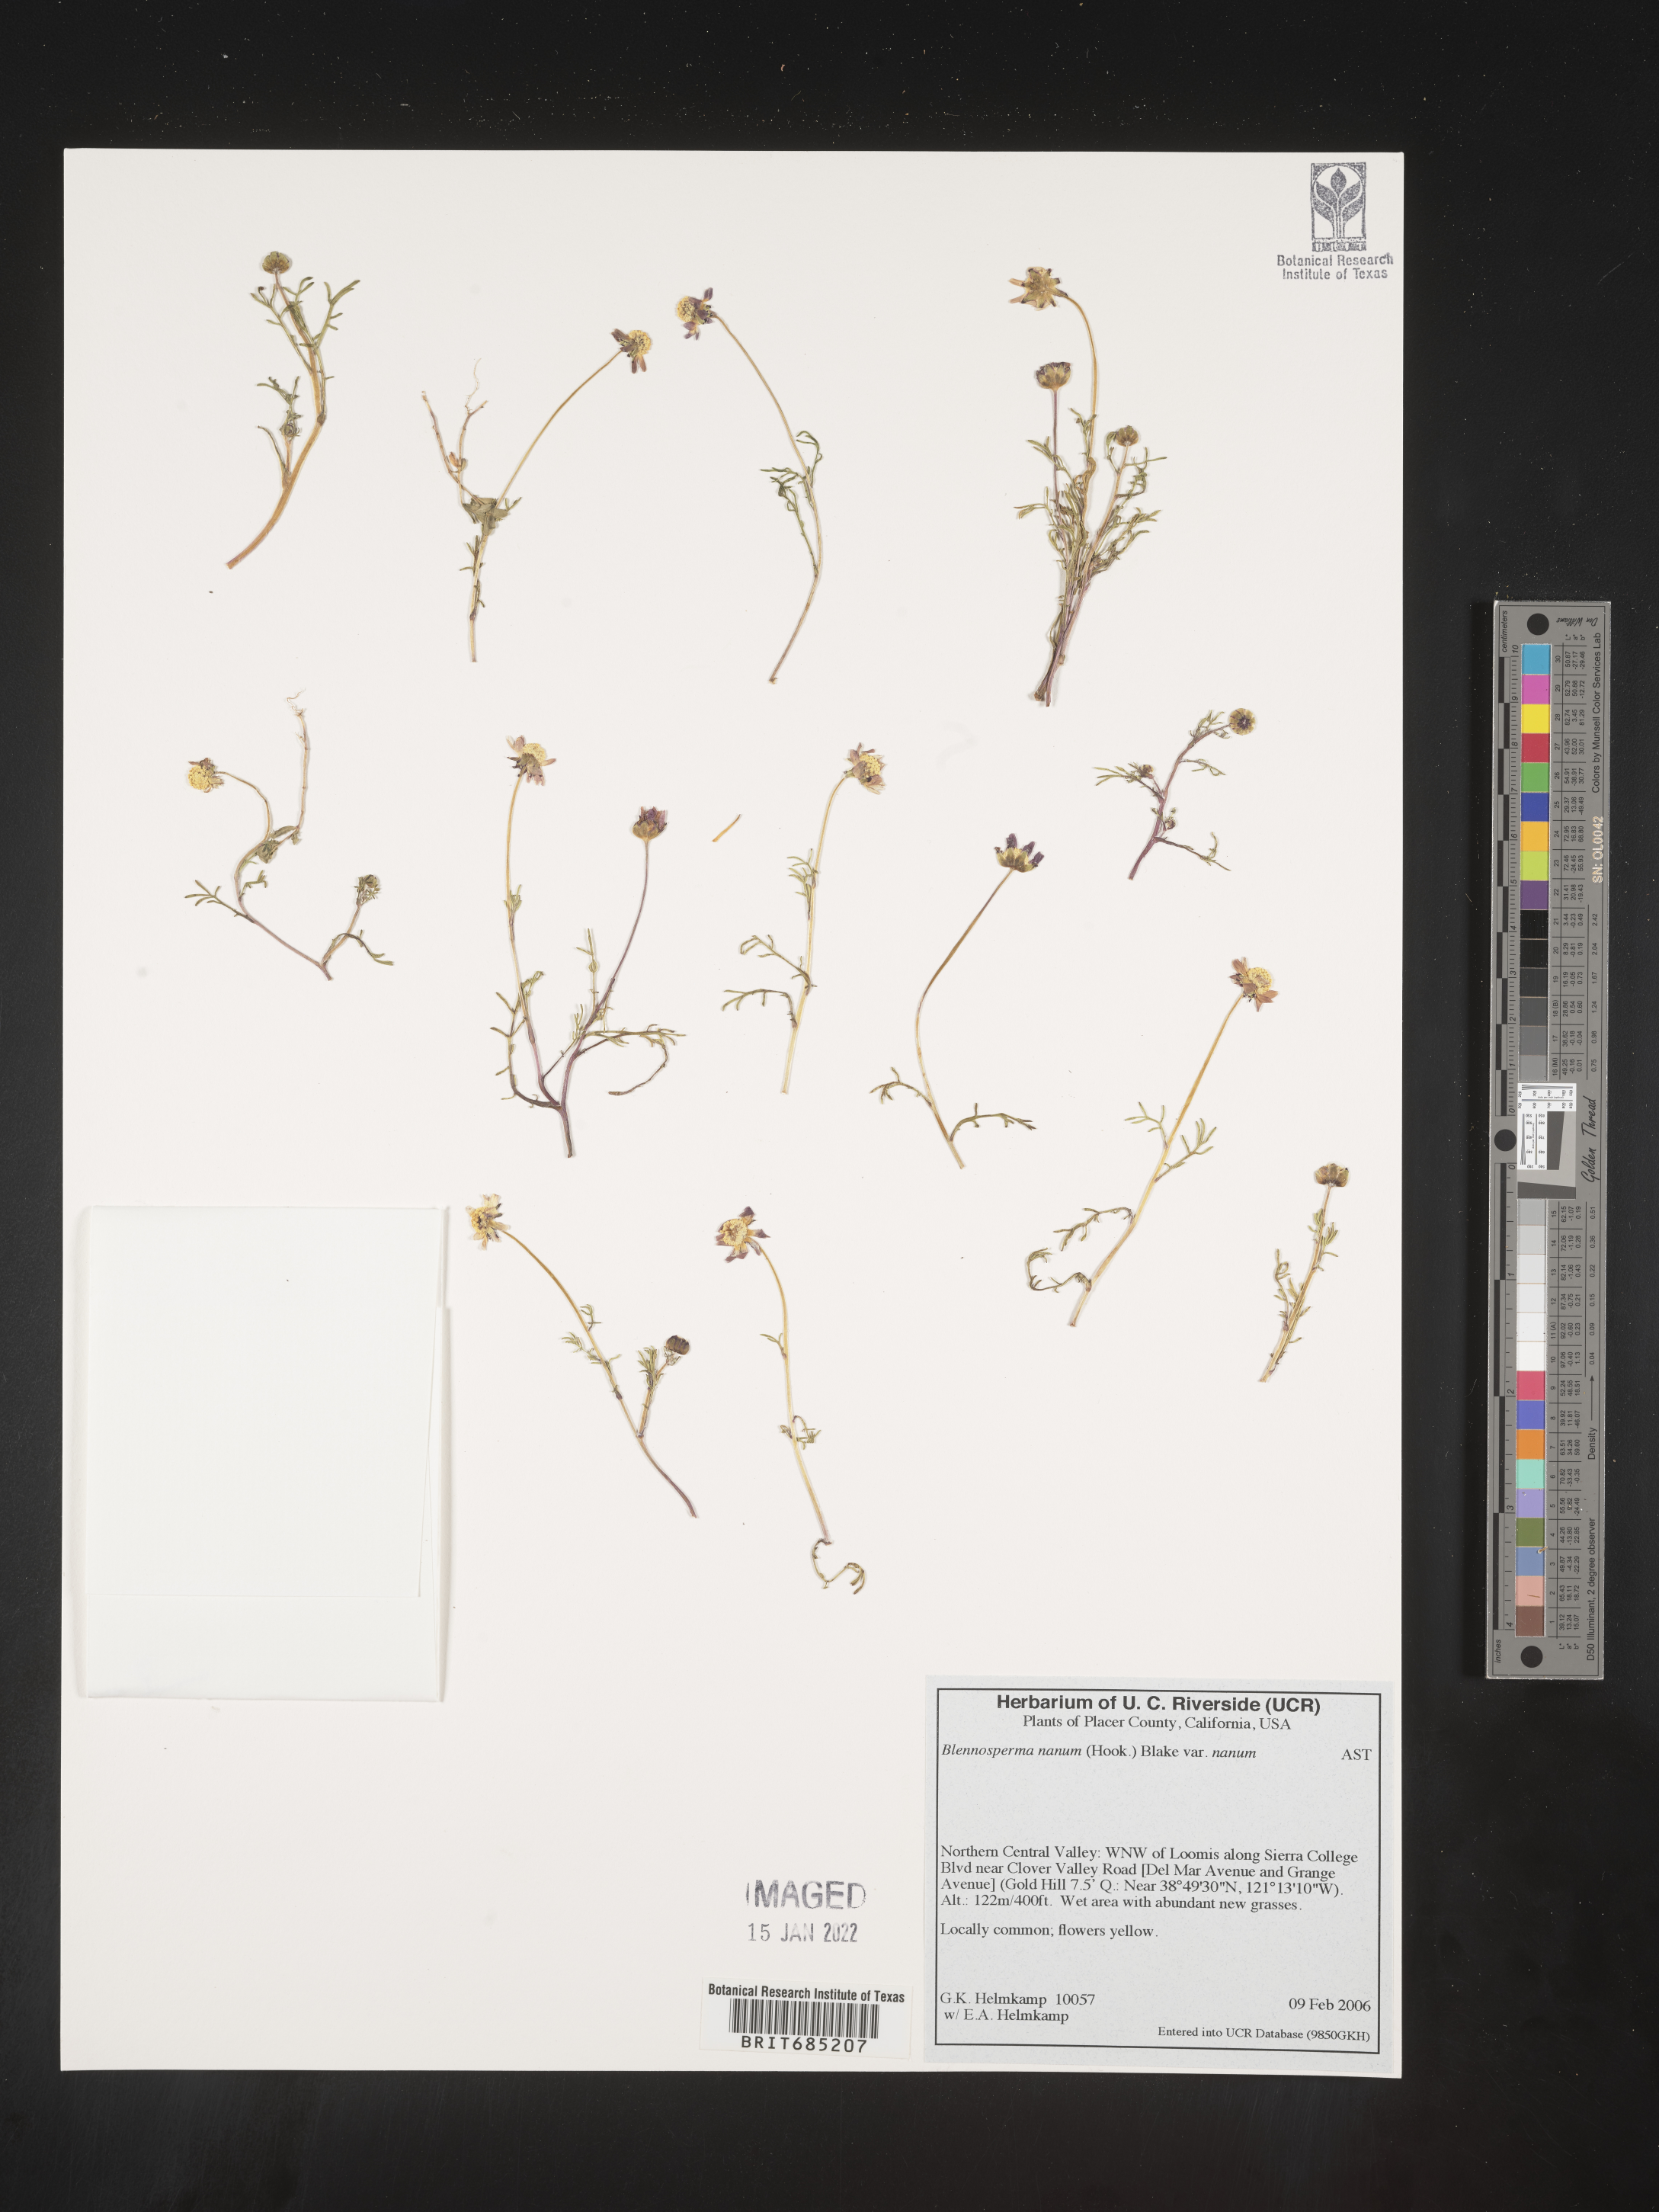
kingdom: Plantae
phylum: Tracheophyta
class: Magnoliopsida
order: Asterales
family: Asteraceae
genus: Blennosperma
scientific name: Blennosperma
